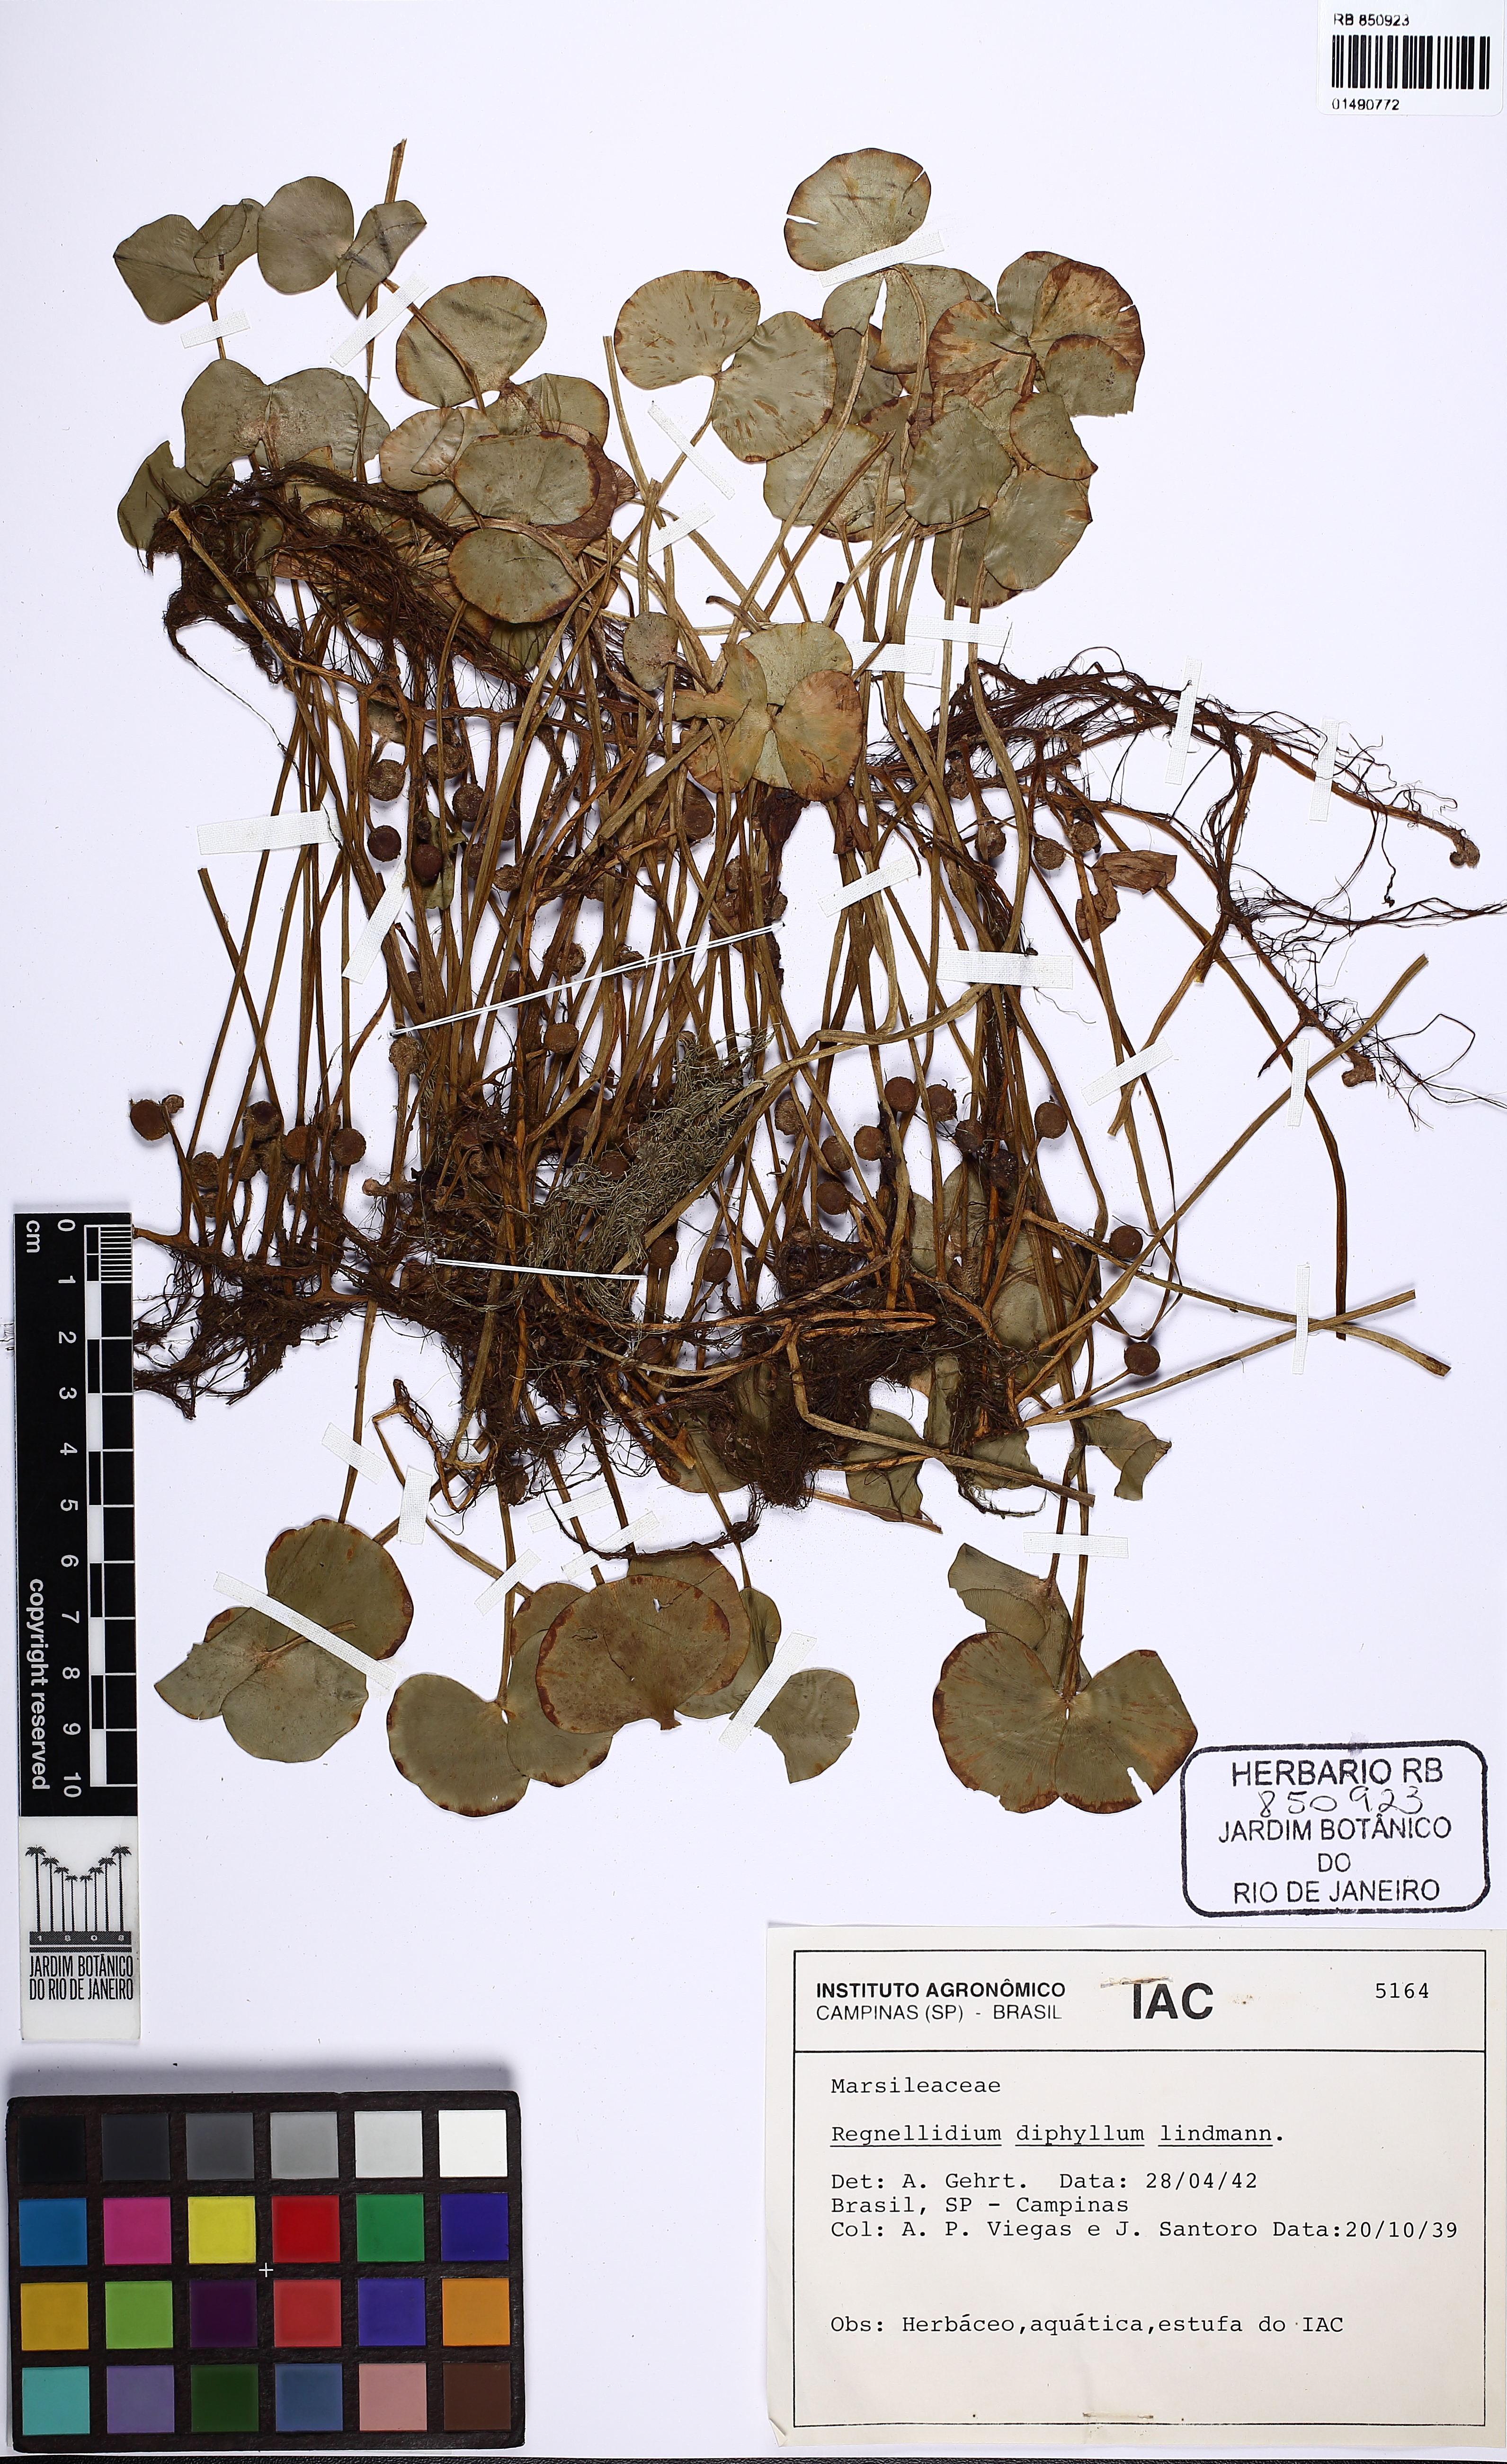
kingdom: Plantae
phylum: Tracheophyta
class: Polypodiopsida
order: Salviniales
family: Marsileaceae
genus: Regnellidium
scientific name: Regnellidium diphyllum
